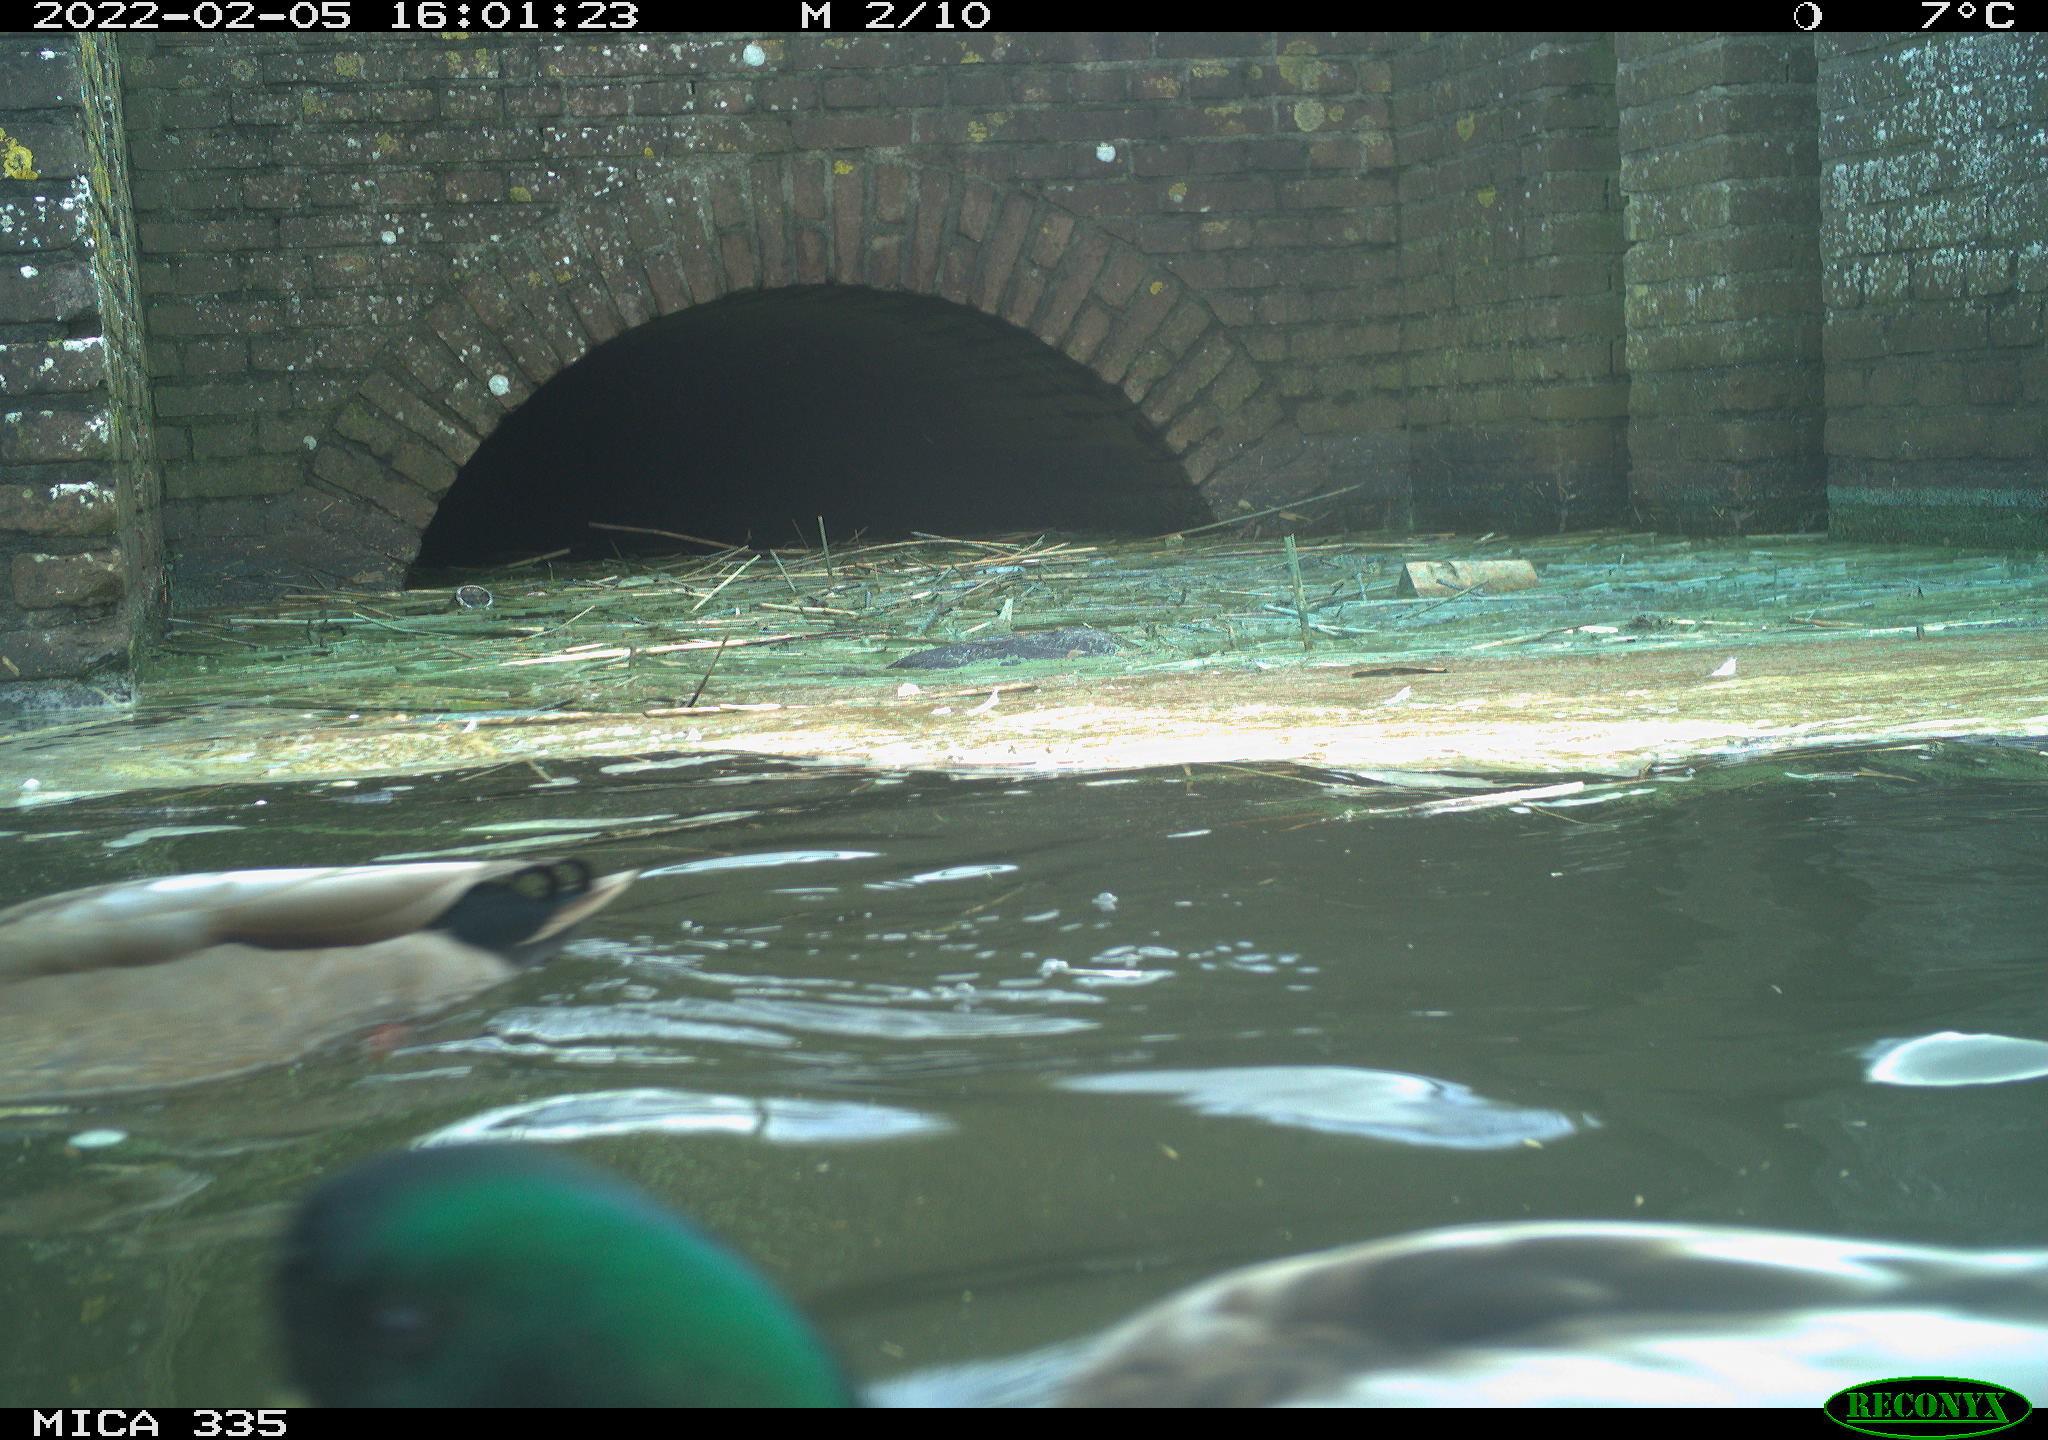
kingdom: Animalia
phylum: Chordata
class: Aves
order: Anseriformes
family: Anatidae
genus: Anas
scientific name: Anas platyrhynchos
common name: Mallard
